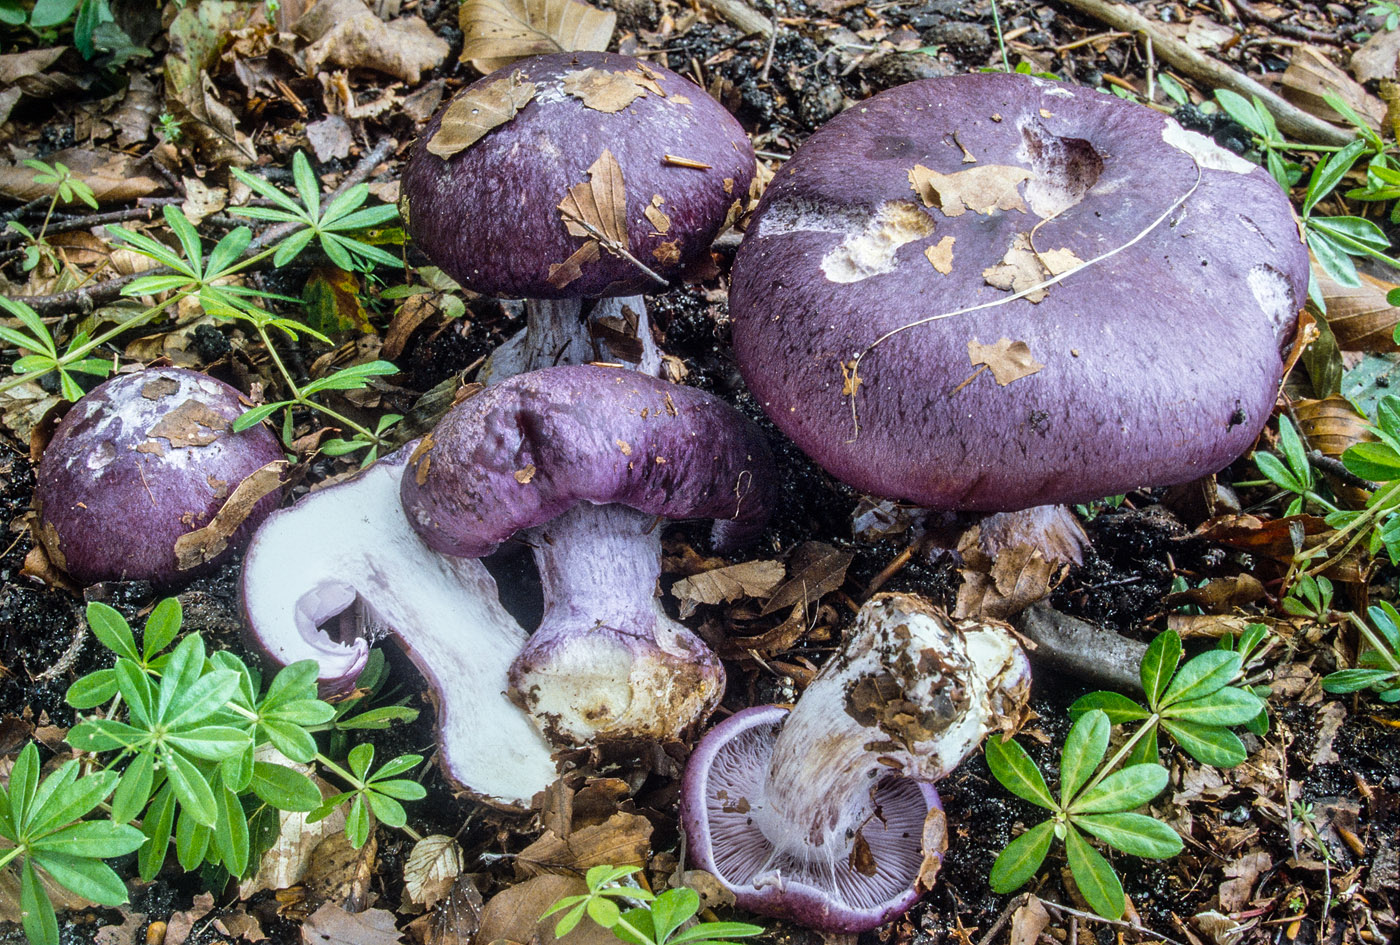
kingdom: Fungi
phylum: Basidiomycota
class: Agaricomycetes
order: Agaricales
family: Cortinariaceae
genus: Phlegmacium
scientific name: Phlegmacium eucaeruleum
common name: indigo-slørhat
